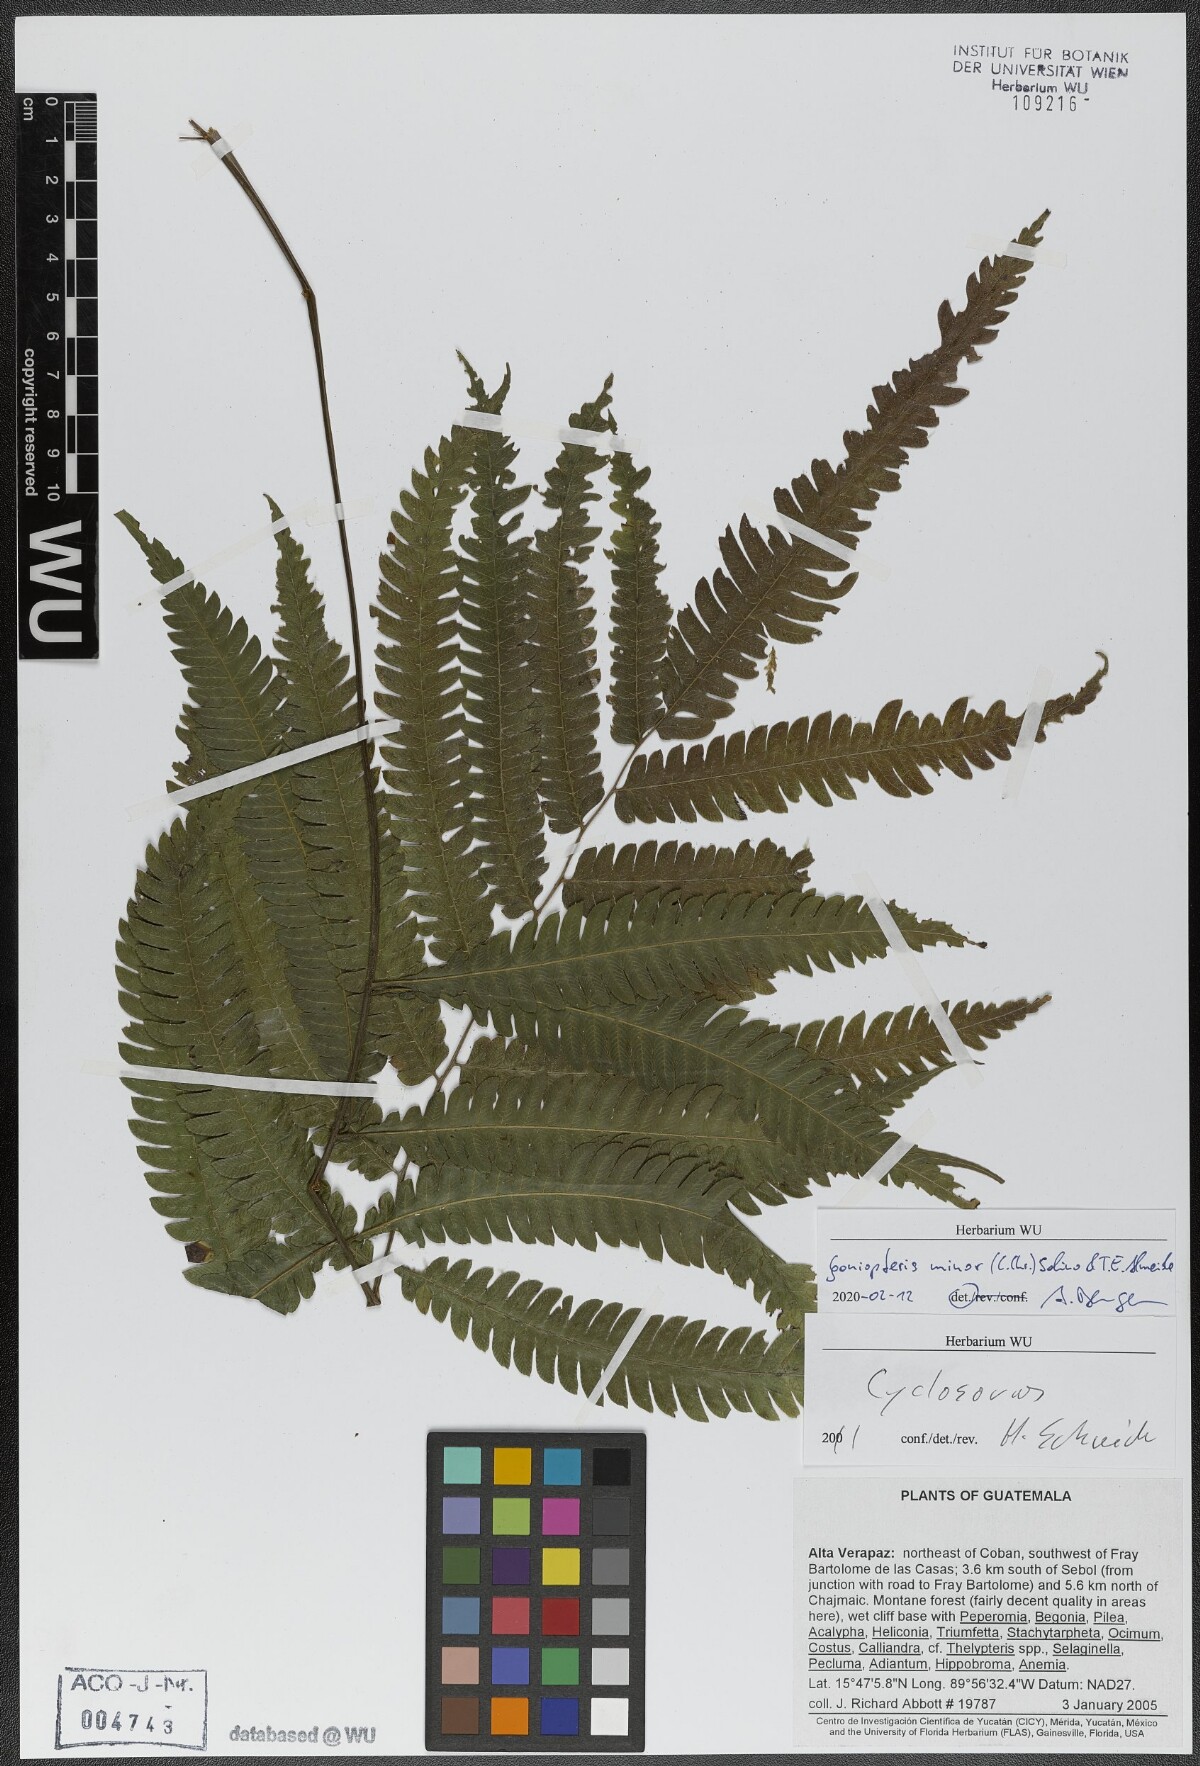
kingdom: Plantae
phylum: Tracheophyta
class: Polypodiopsida
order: Polypodiales
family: Thelypteridaceae
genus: Goniopteris
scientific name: Goniopteris minor
